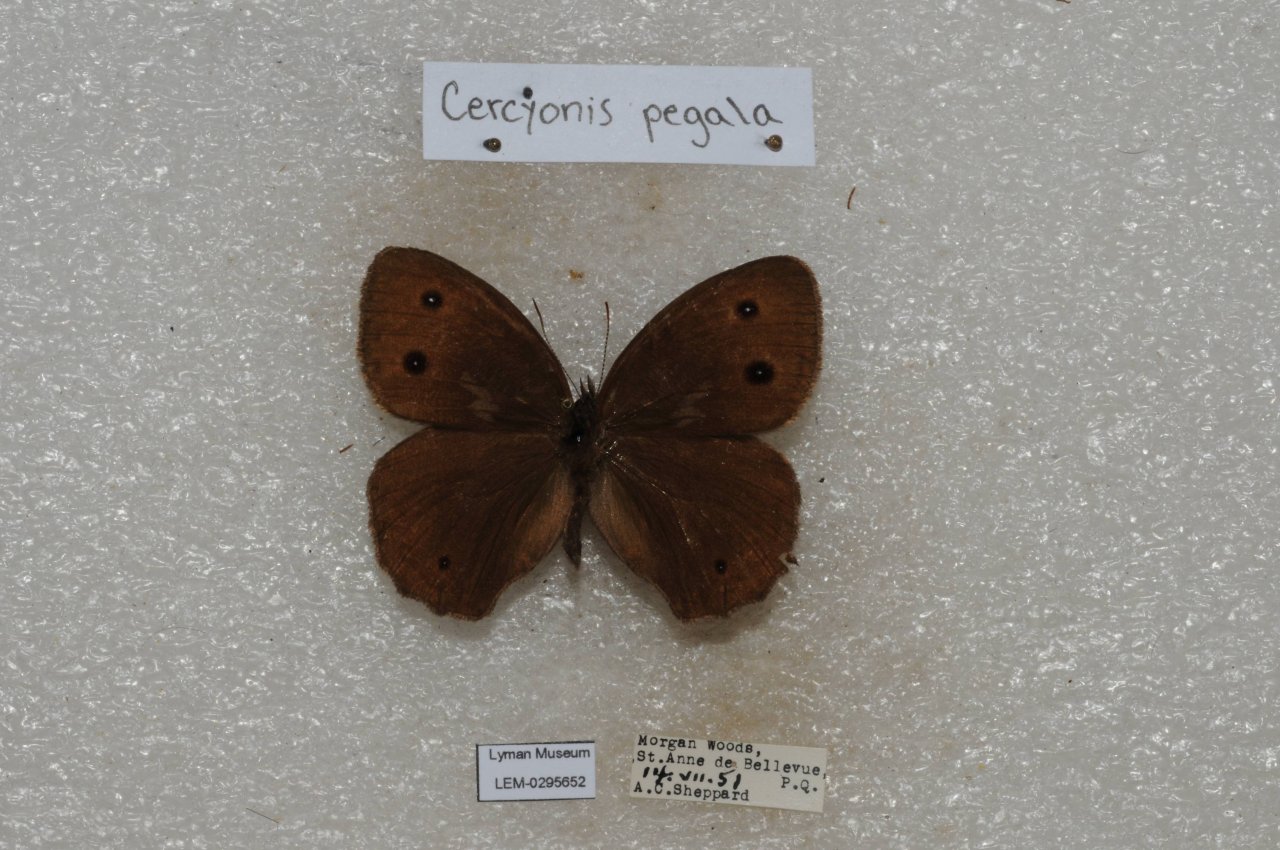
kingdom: Animalia
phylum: Arthropoda
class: Insecta
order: Lepidoptera
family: Nymphalidae
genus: Cercyonis
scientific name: Cercyonis pegala
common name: Common Wood-Nymph
